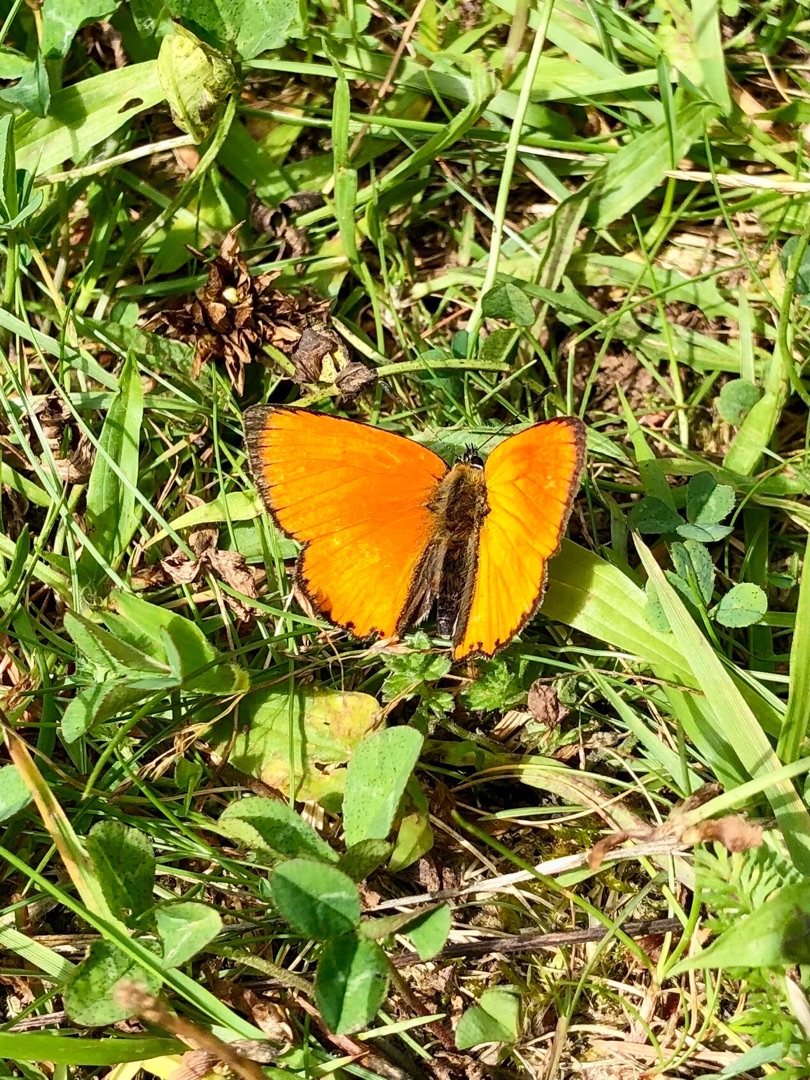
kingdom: Animalia
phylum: Arthropoda
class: Insecta
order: Lepidoptera
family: Lycaenidae
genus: Lycaena
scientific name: Lycaena virgaureae
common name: Dukatsommerfugl
